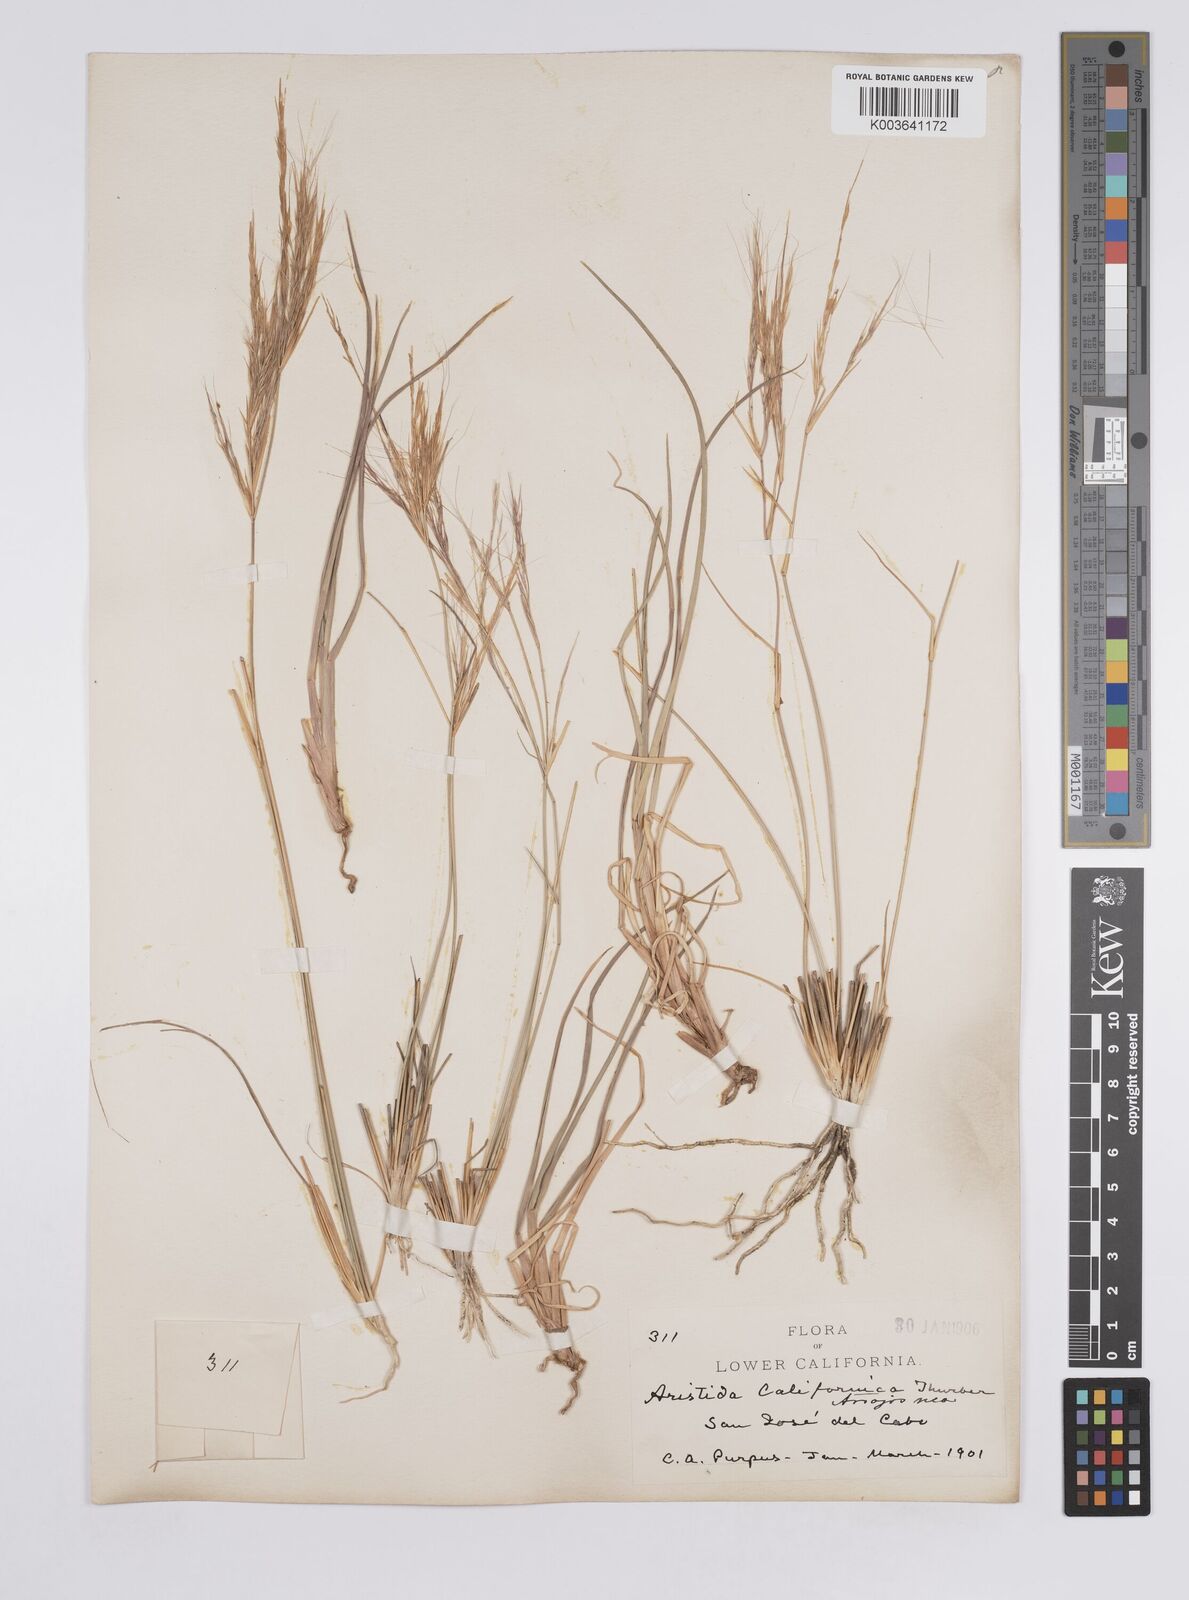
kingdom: Plantae
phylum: Tracheophyta
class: Liliopsida
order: Poales
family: Poaceae
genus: Aristida
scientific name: Aristida californica
